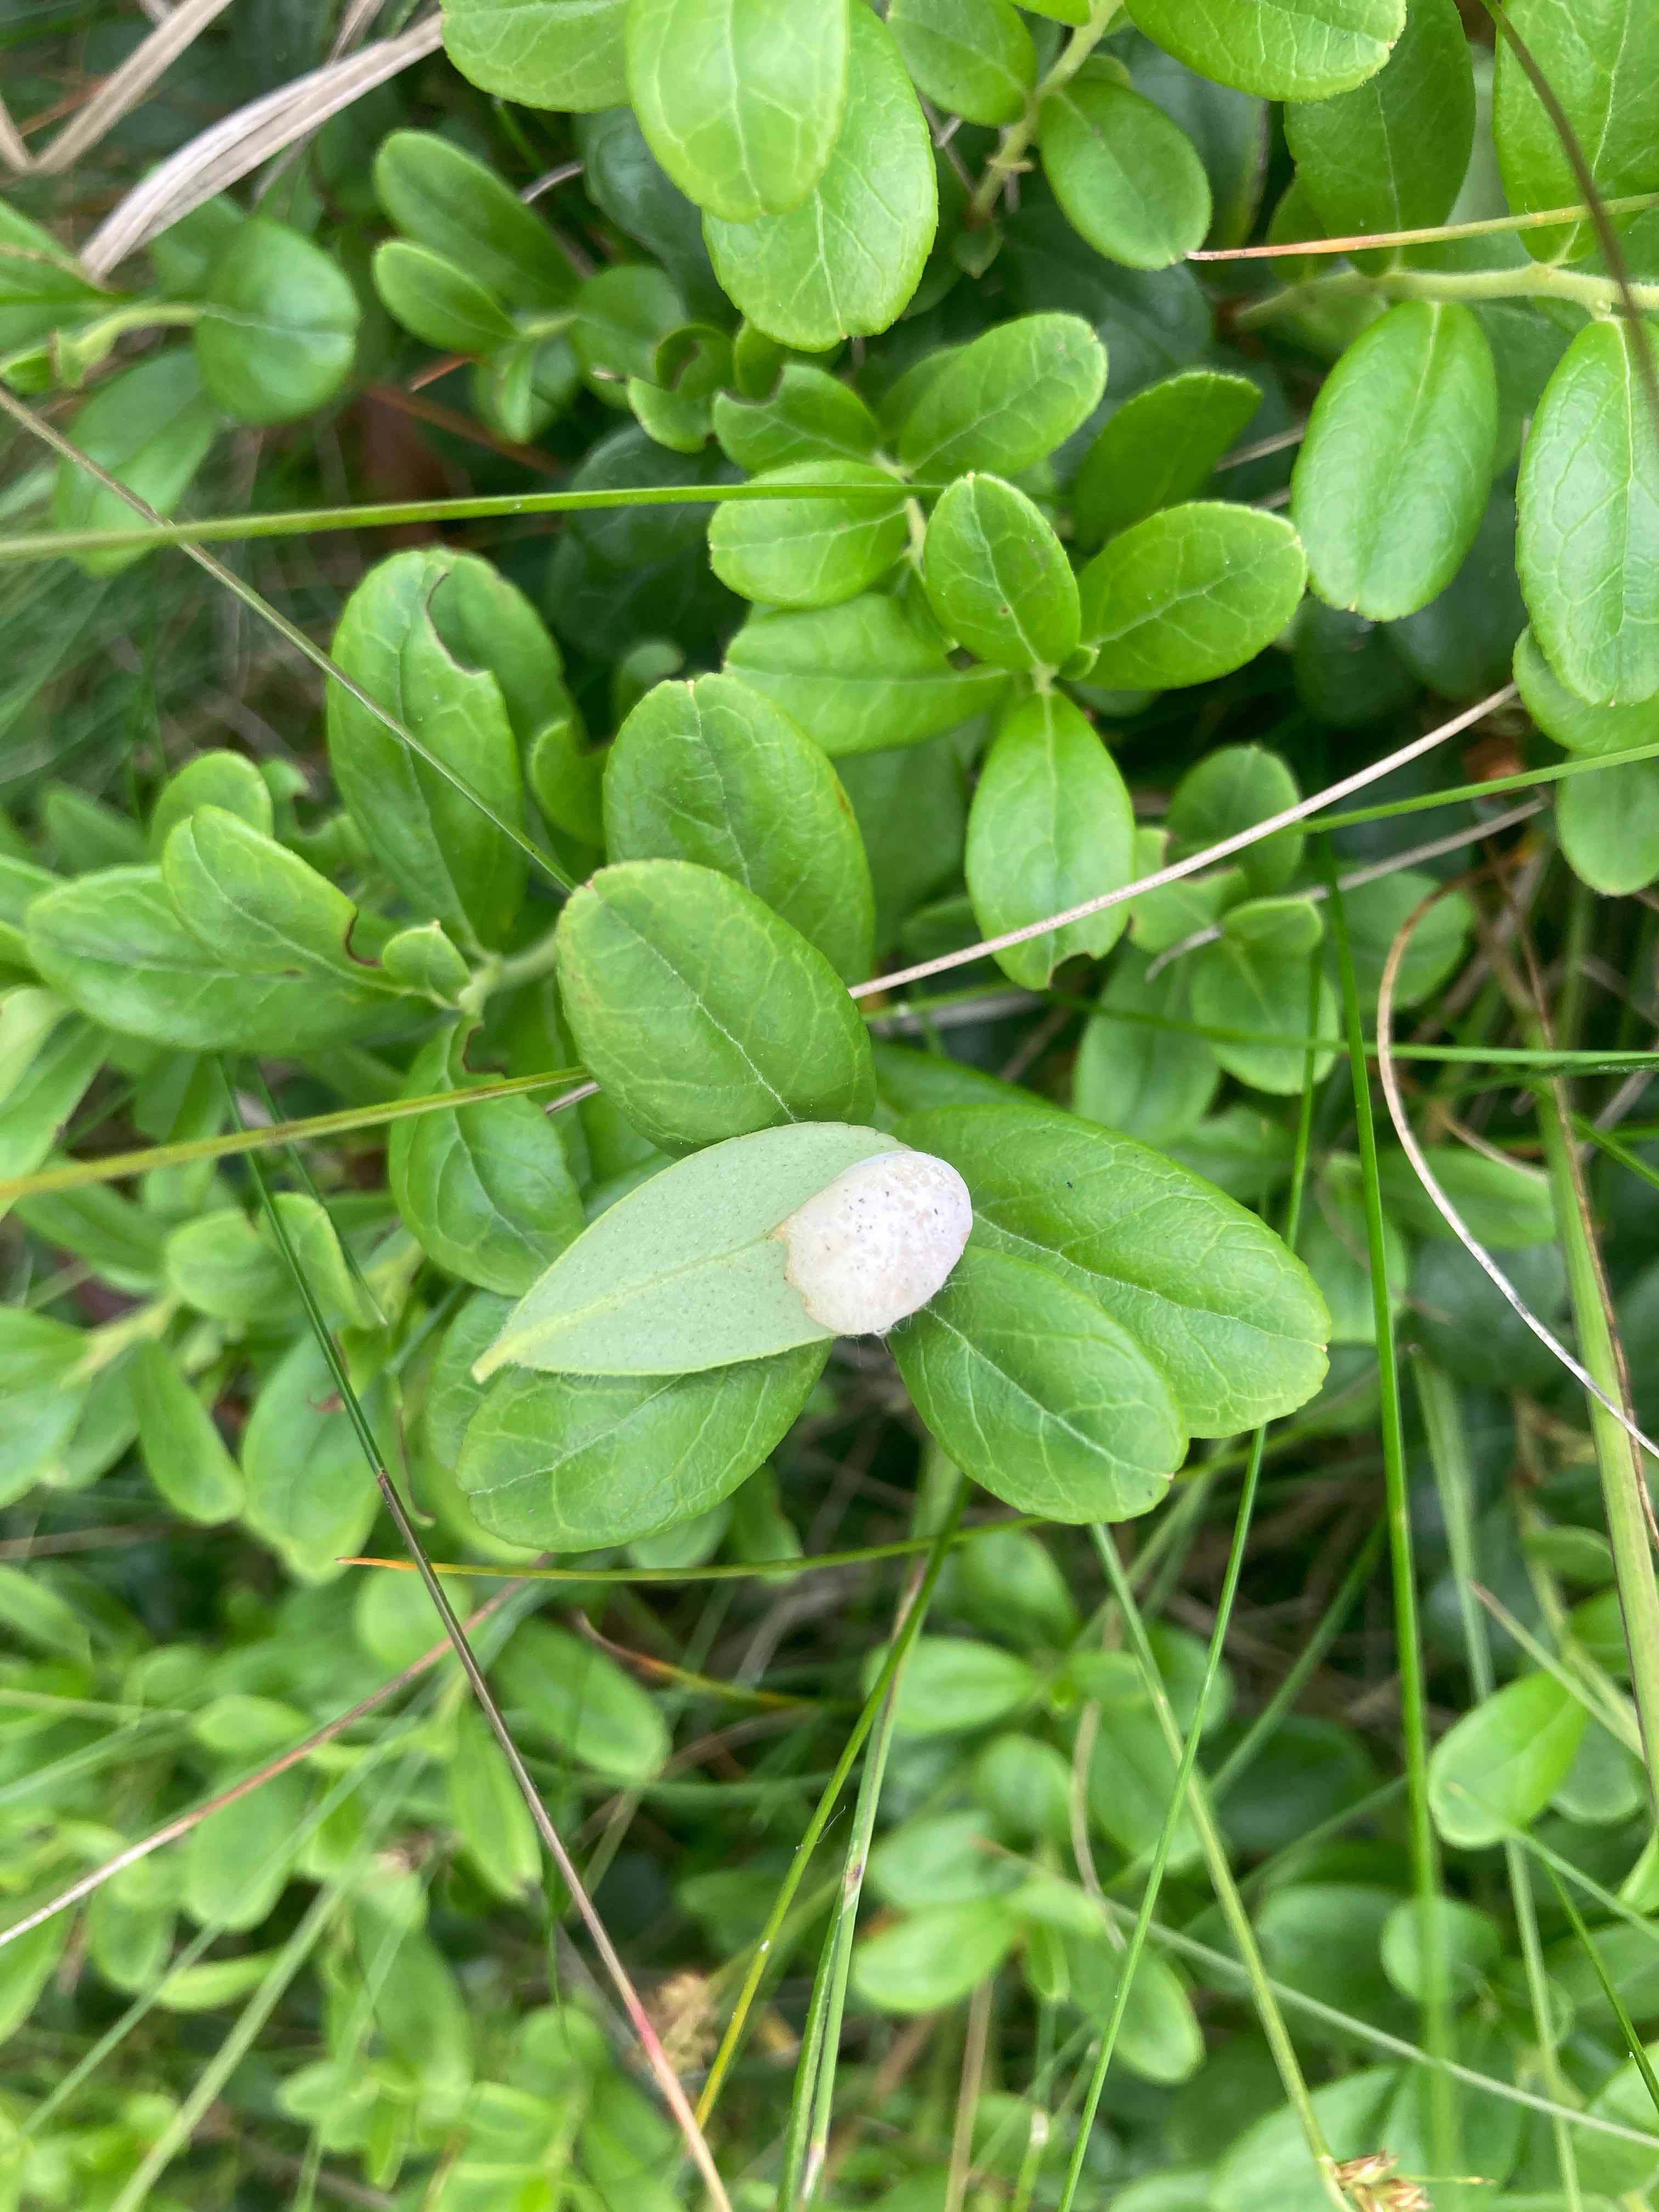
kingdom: Fungi
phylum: Basidiomycota
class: Exobasidiomycetes
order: Exobasidiales
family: Exobasidiaceae
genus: Exobasidium
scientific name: Exobasidium vaccinii
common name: tyttebærblad-bøllesvamp
